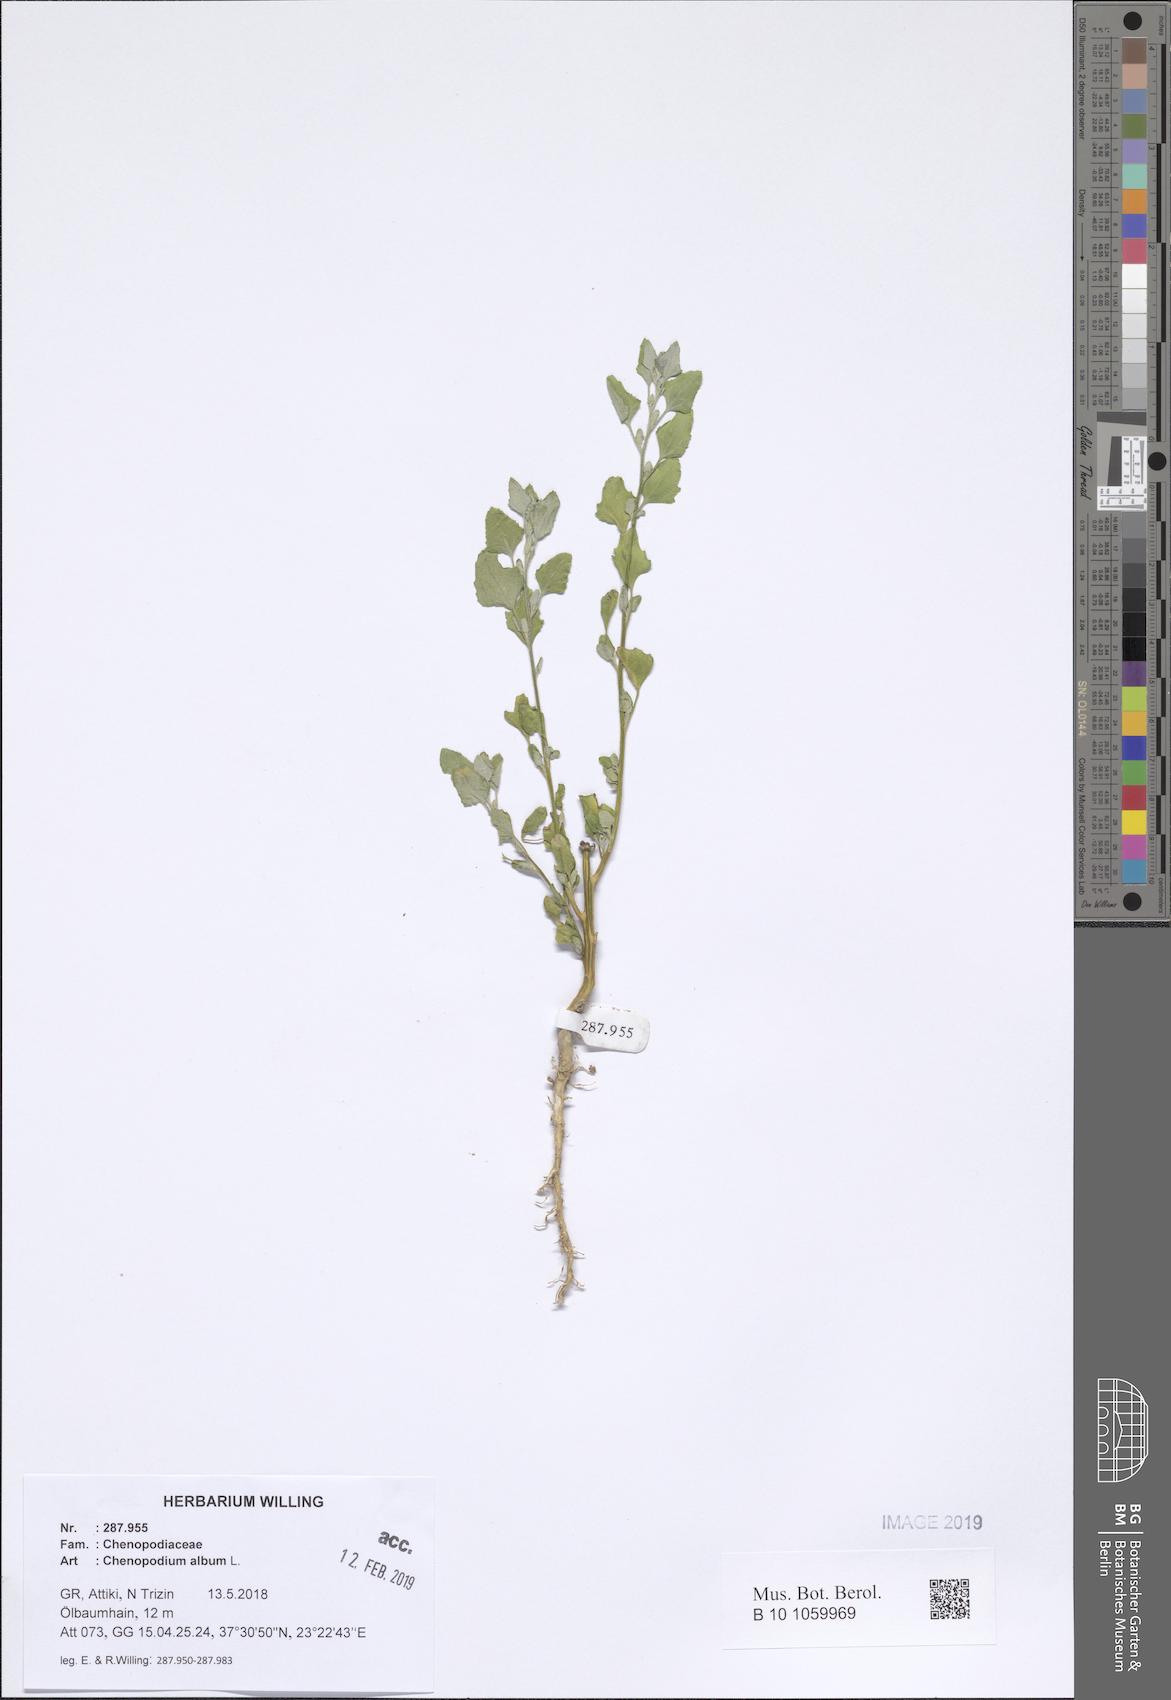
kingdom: Plantae
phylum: Tracheophyta
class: Magnoliopsida
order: Caryophyllales
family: Amaranthaceae
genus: Chenopodium
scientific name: Chenopodium album
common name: Fat-hen
